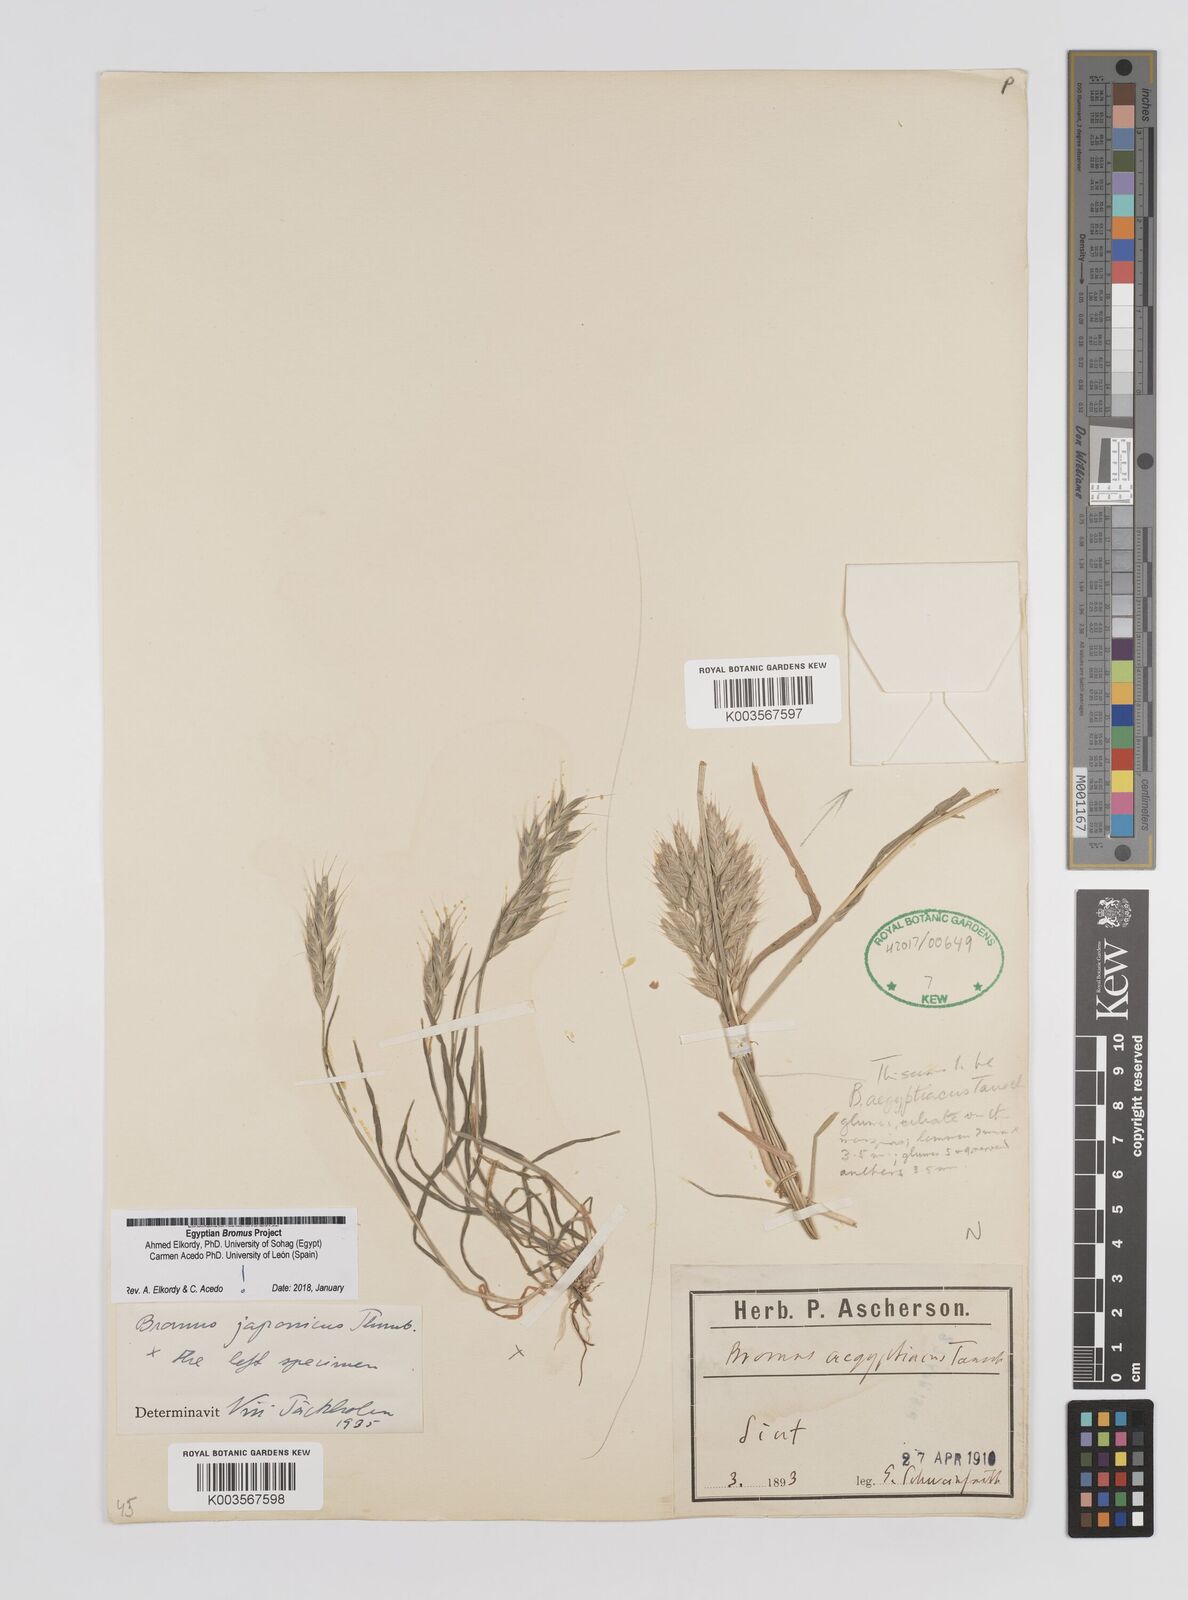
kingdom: Plantae
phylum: Tracheophyta
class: Liliopsida
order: Poales
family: Poaceae
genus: Bromus
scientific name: Bromus aegyptiacus
